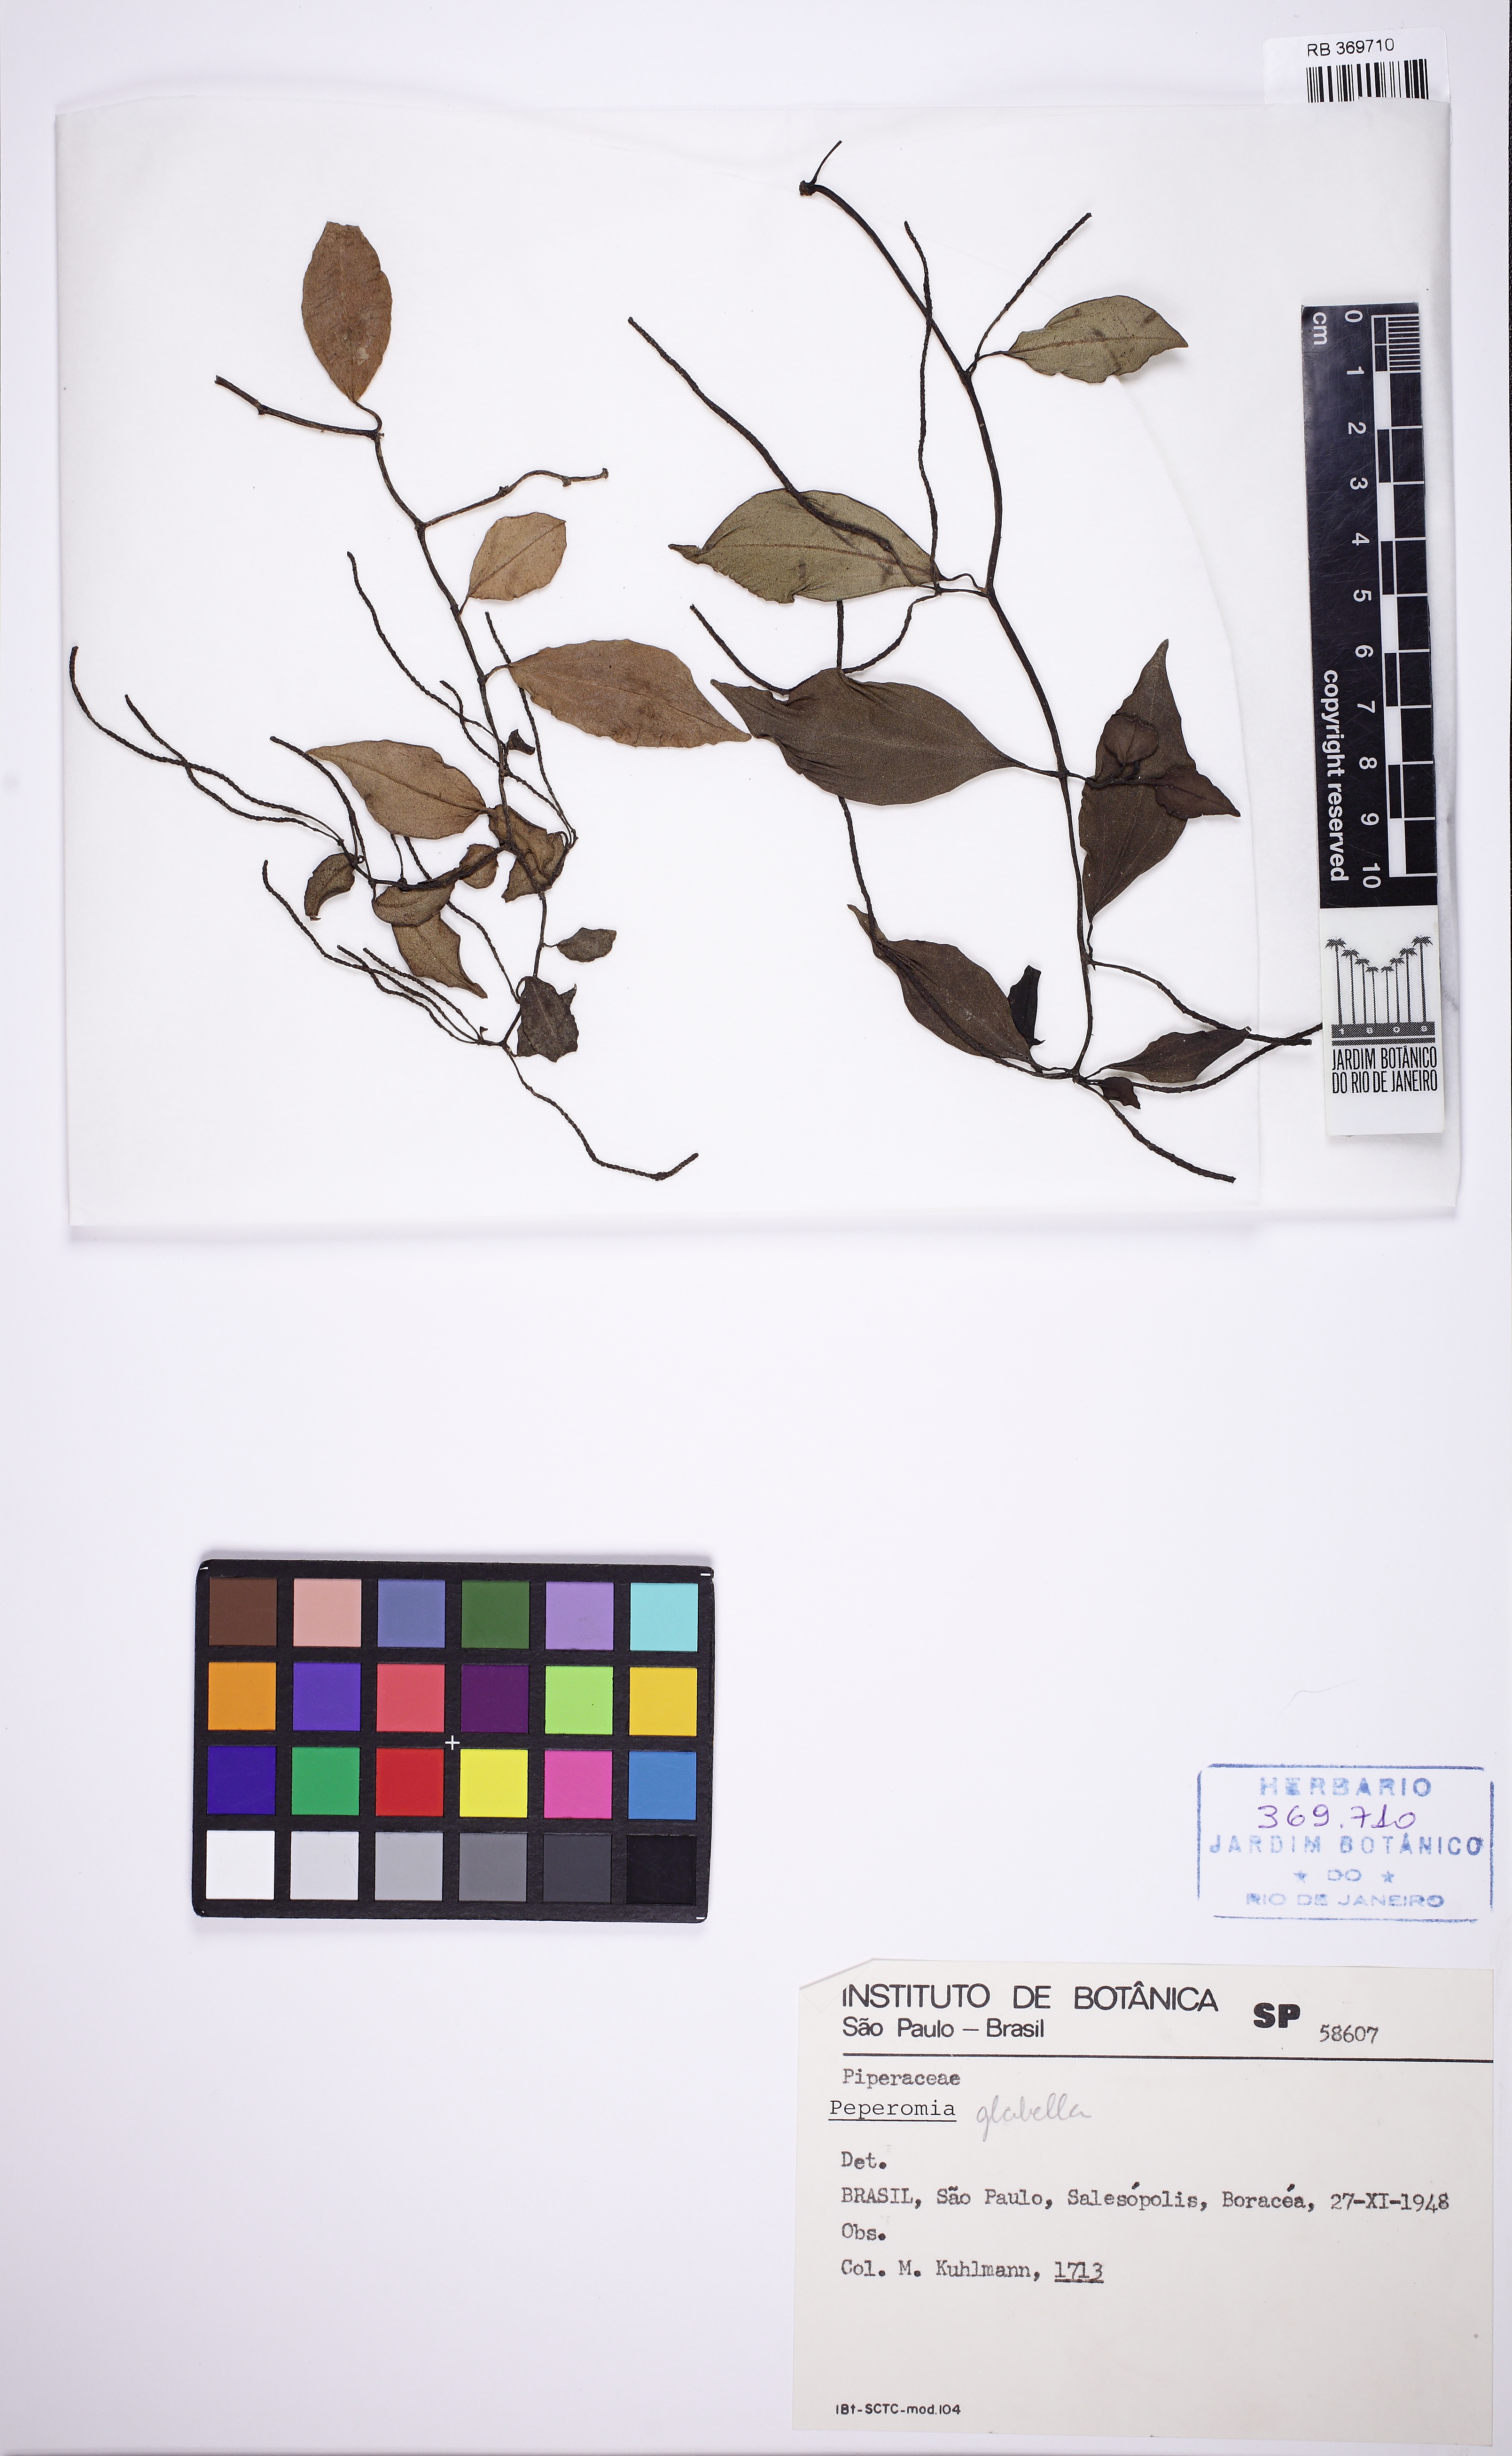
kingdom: Plantae
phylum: Tracheophyta
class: Magnoliopsida
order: Piperales
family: Piperaceae
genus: Peperomia
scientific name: Peperomia glabella
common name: Cypress peperomia
